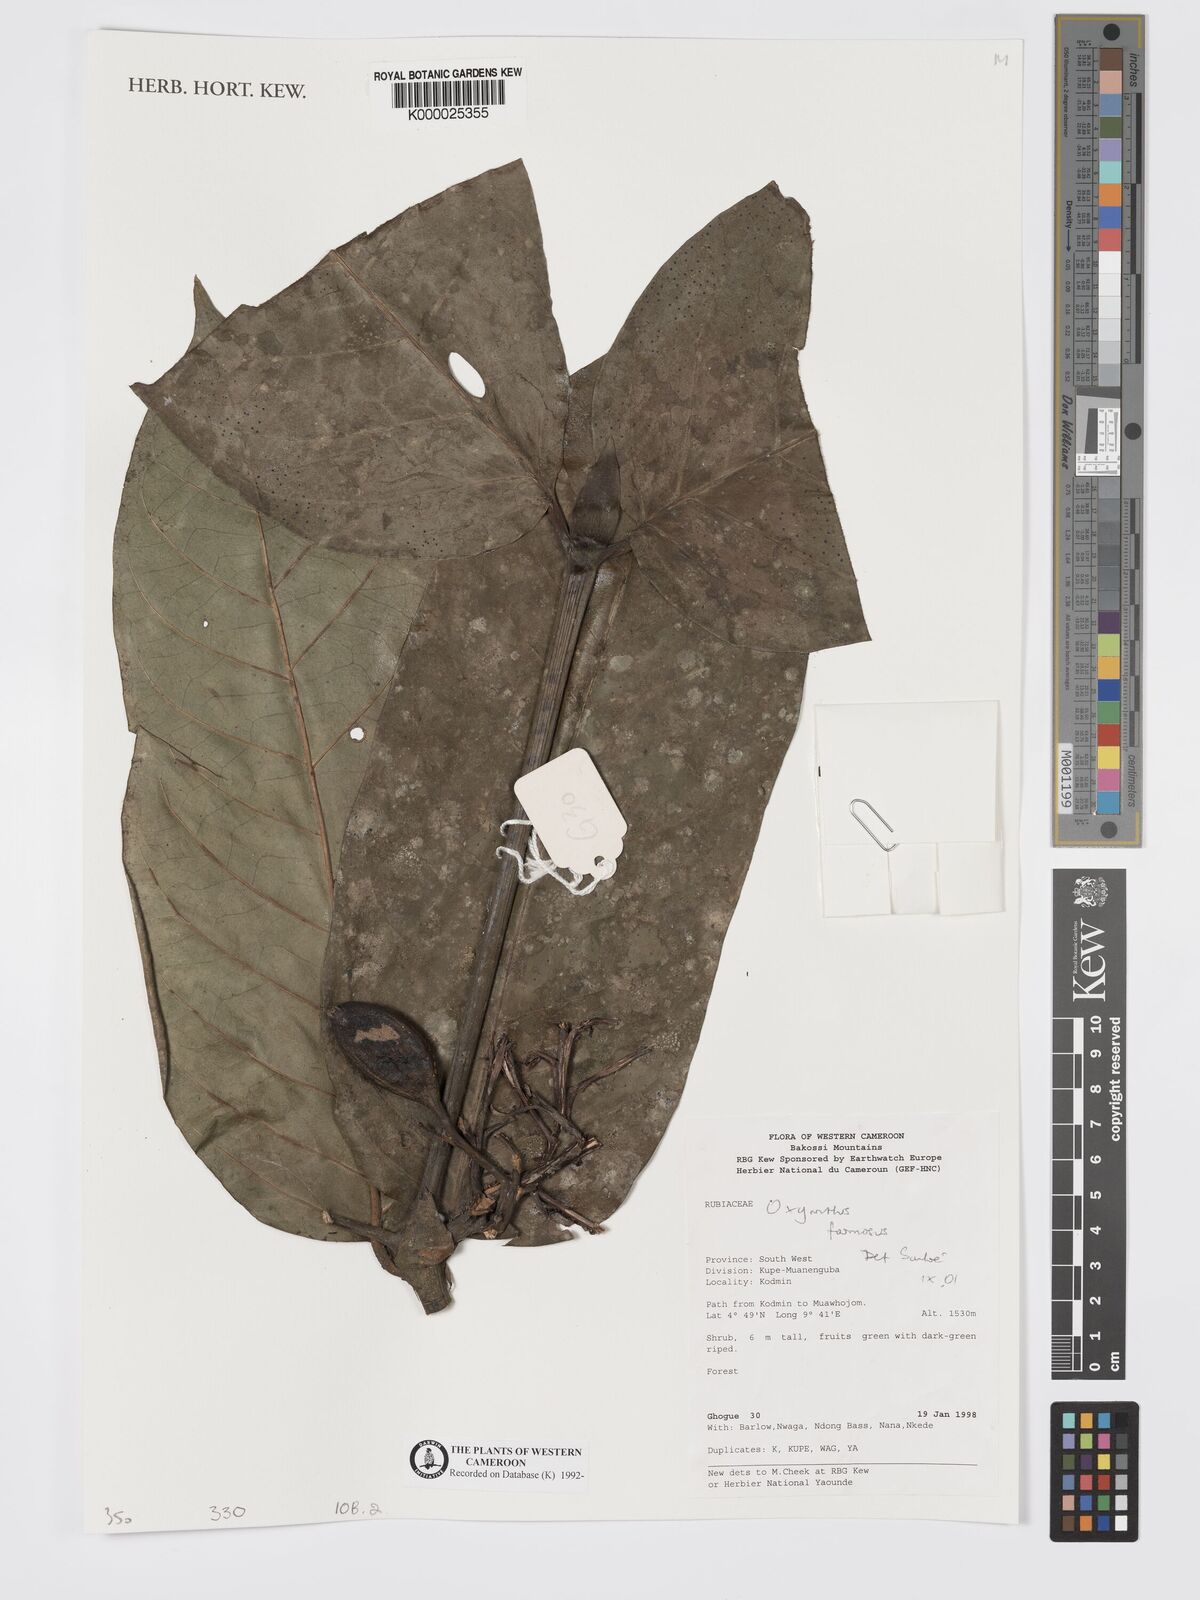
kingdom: Plantae
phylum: Tracheophyta
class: Magnoliopsida
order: Gentianales
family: Rubiaceae
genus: Oxyanthus
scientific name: Oxyanthus
